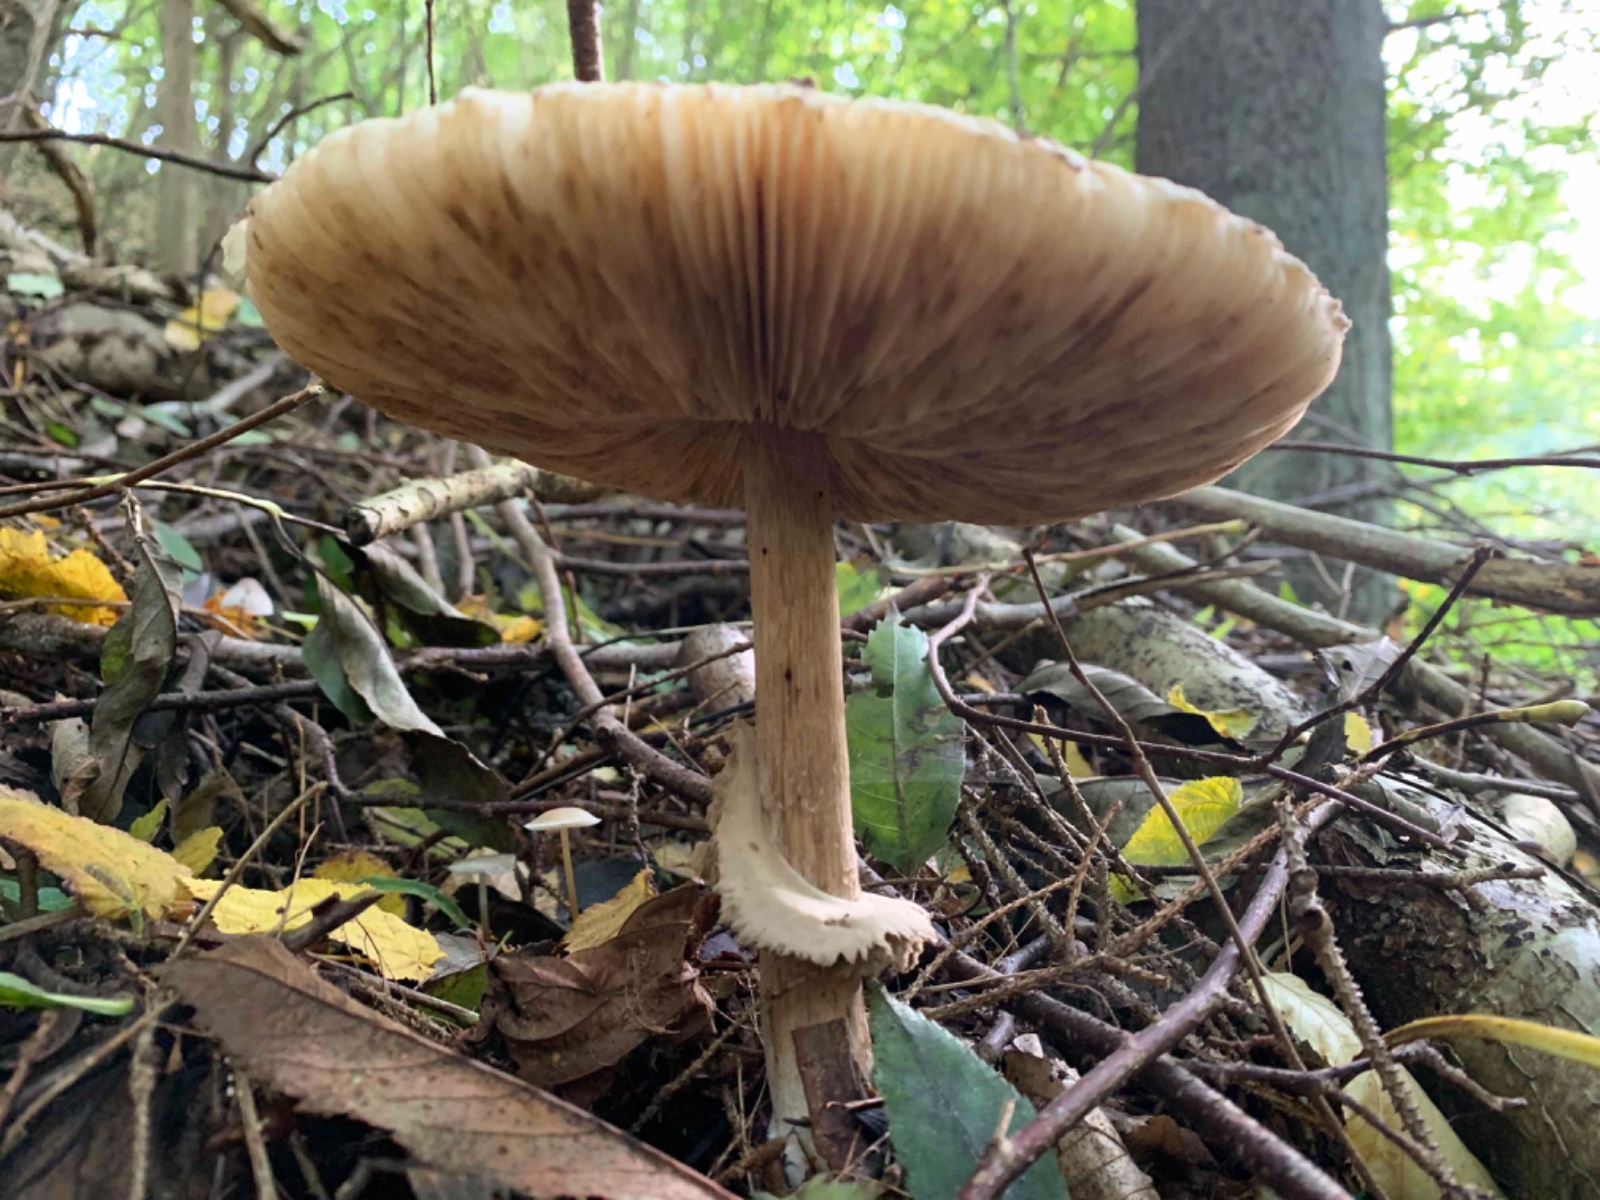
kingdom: Fungi
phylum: Basidiomycota
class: Agaricomycetes
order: Agaricales
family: Agaricaceae
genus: Chlorophyllum
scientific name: Chlorophyllum olivieri
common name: almindelig rabarberhat
